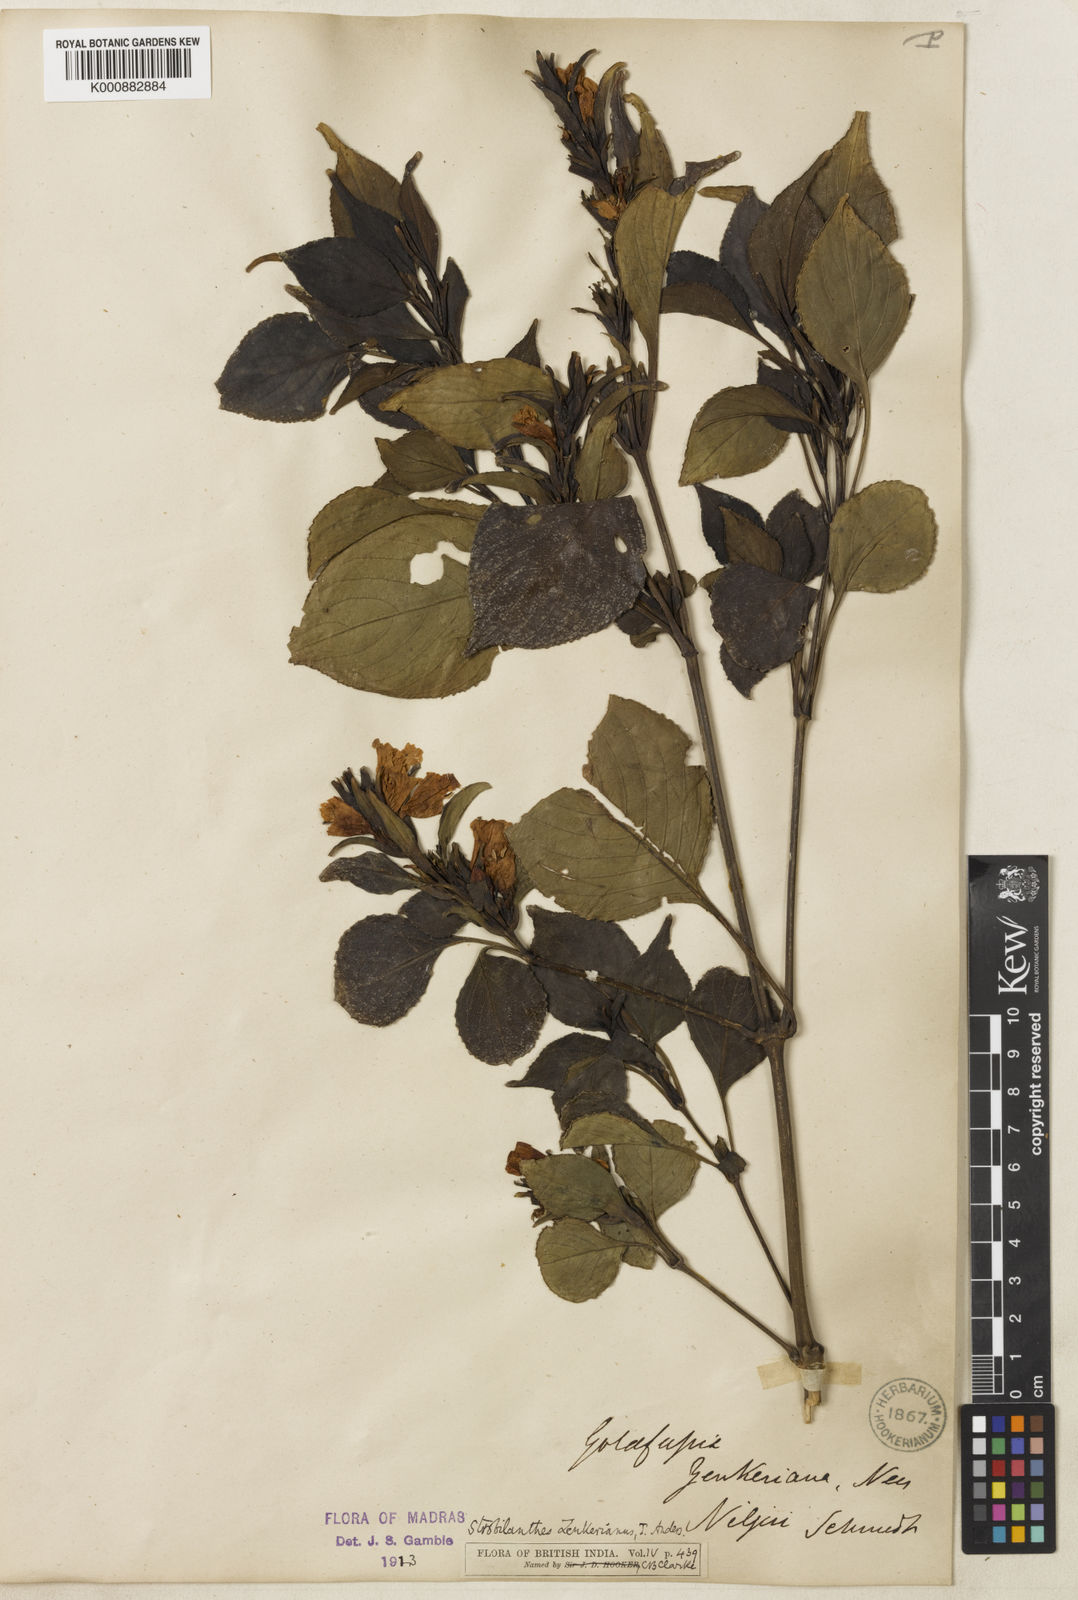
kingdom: Plantae
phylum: Tracheophyta
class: Magnoliopsida
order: Lamiales
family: Acanthaceae
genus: Strobilanthes
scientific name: Strobilanthes zenkeriana
